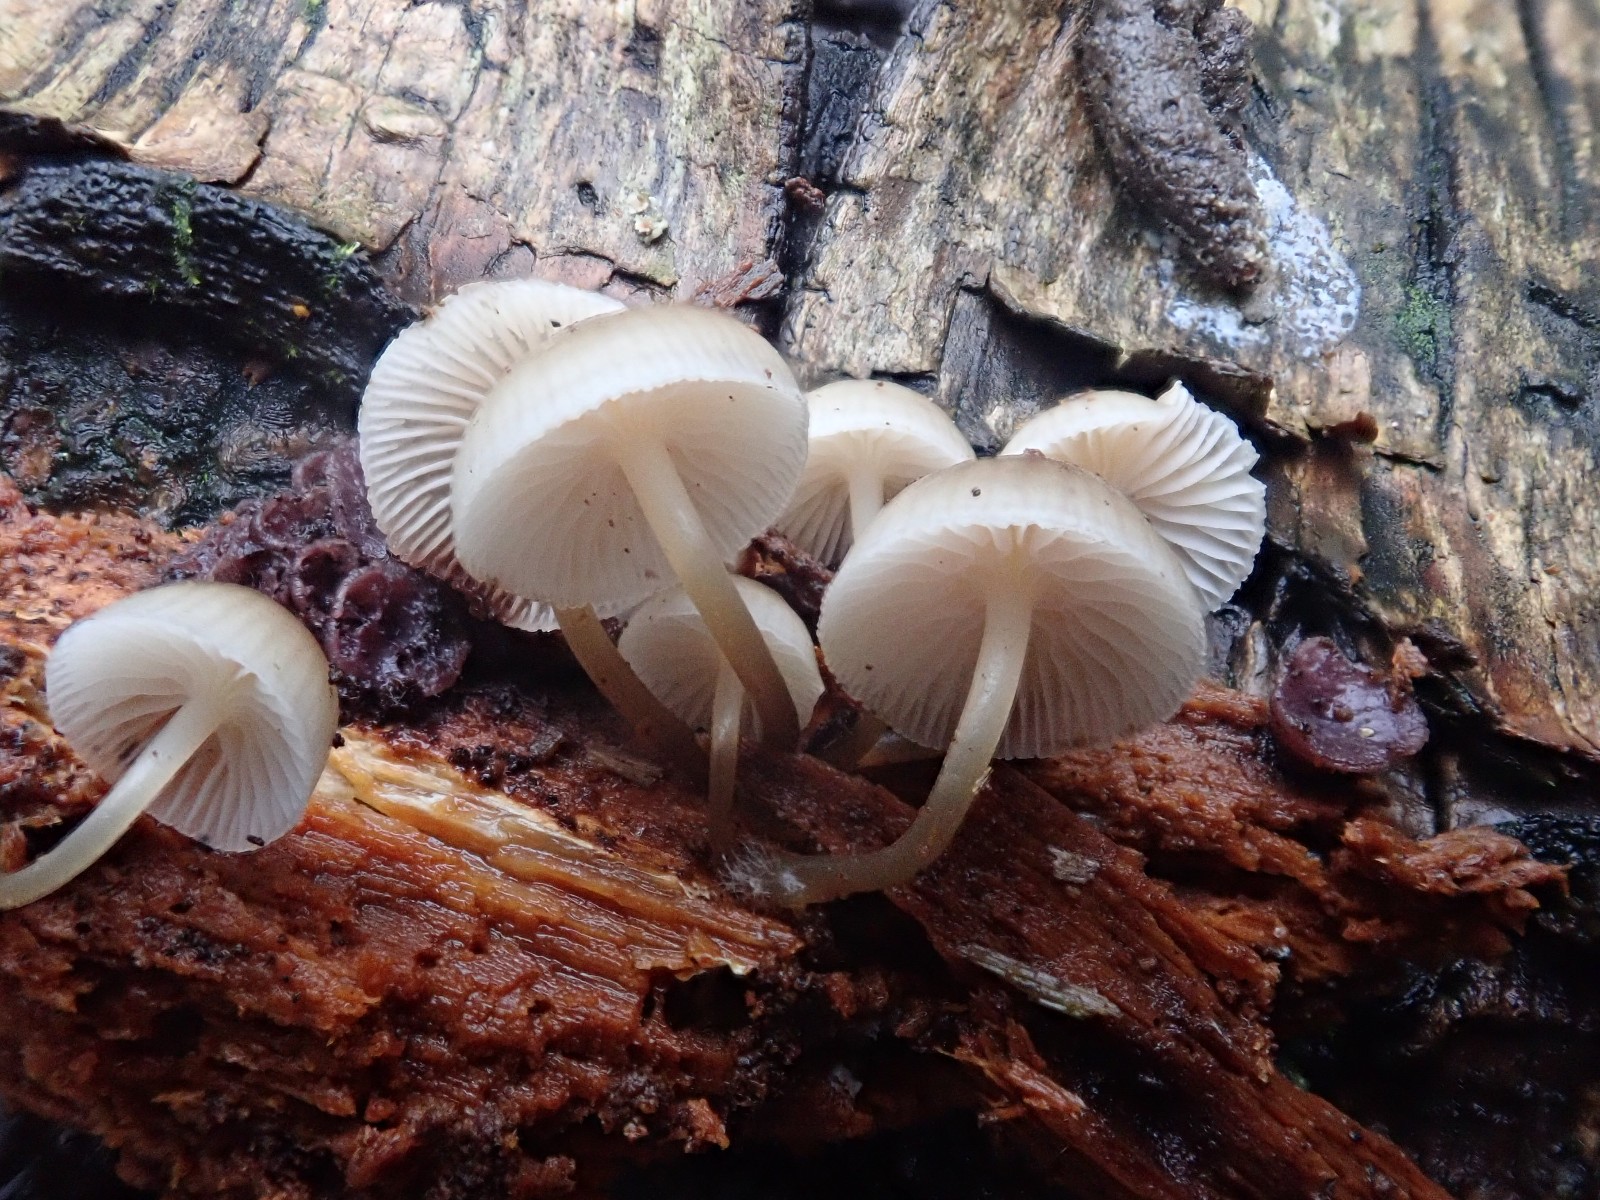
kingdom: Fungi
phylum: Basidiomycota
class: Agaricomycetes
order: Agaricales
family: Mycenaceae
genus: Mycena
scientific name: Mycena tintinnabulum
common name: vinter-huesvamp
